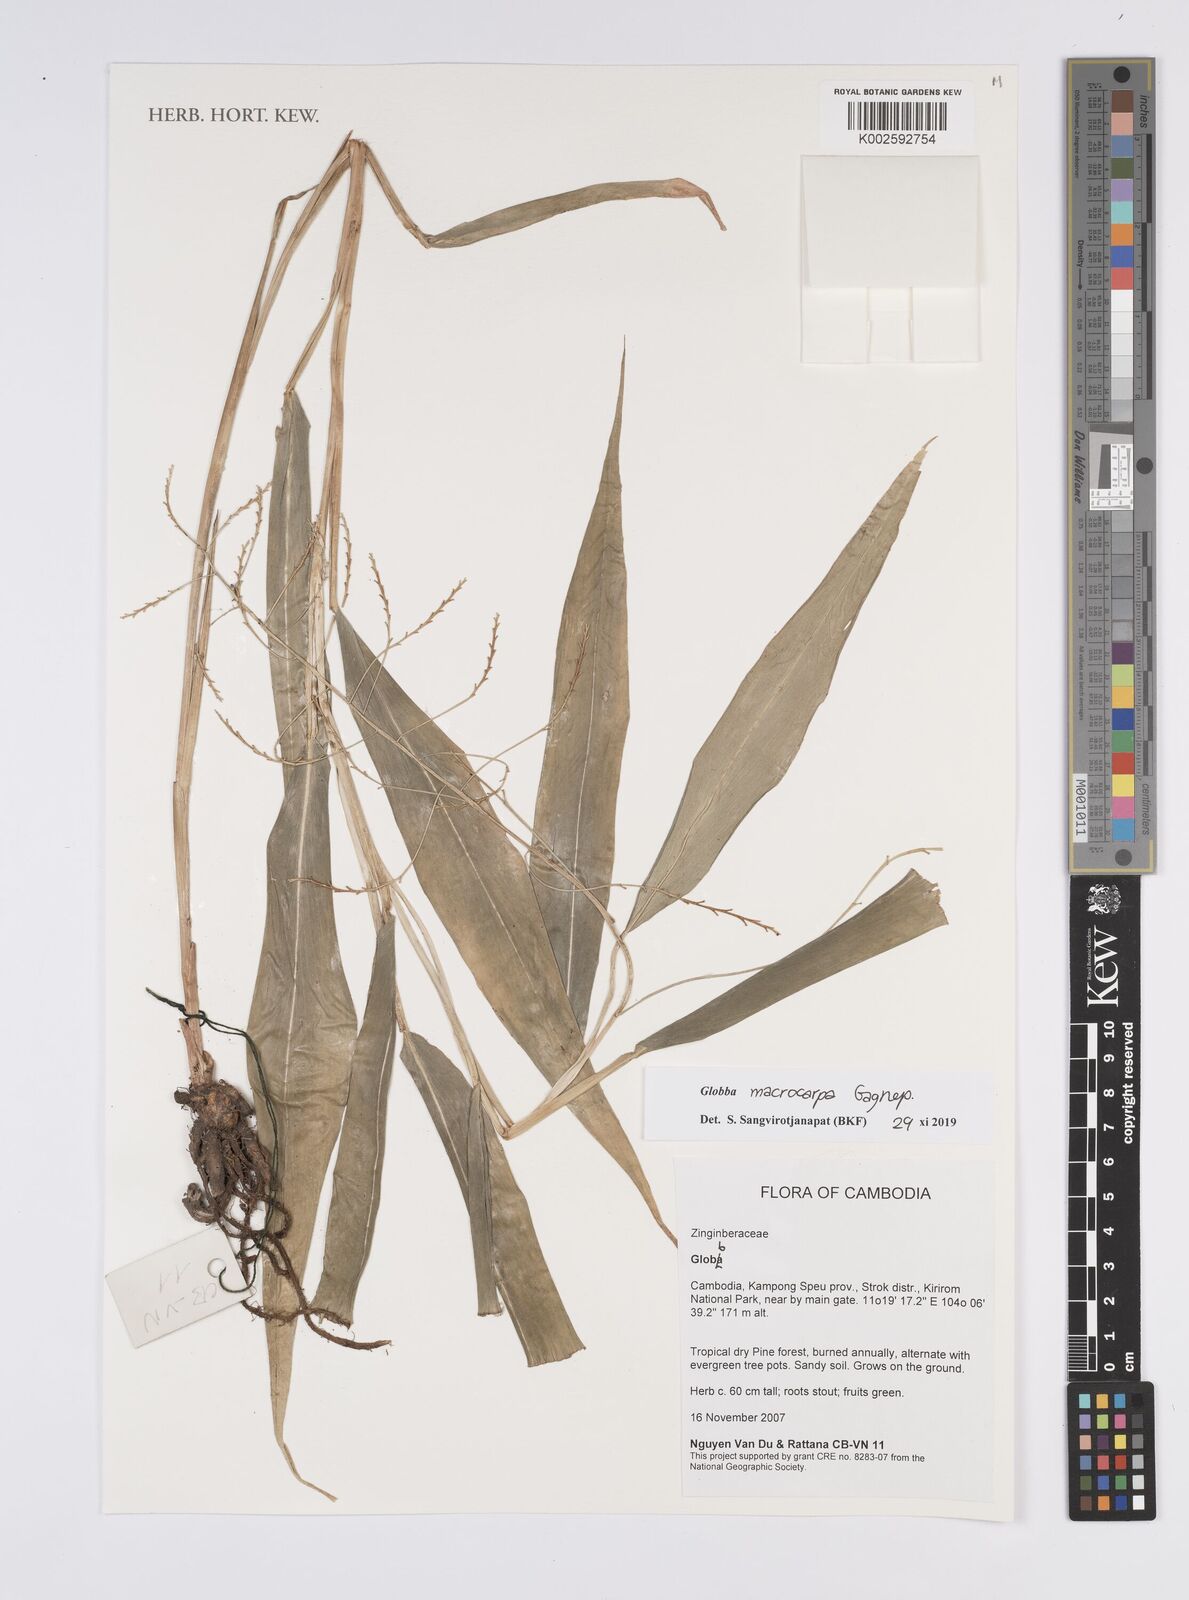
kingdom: Plantae
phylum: Tracheophyta
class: Liliopsida
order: Zingiberales
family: Zingiberaceae
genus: Globba
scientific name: Globba
